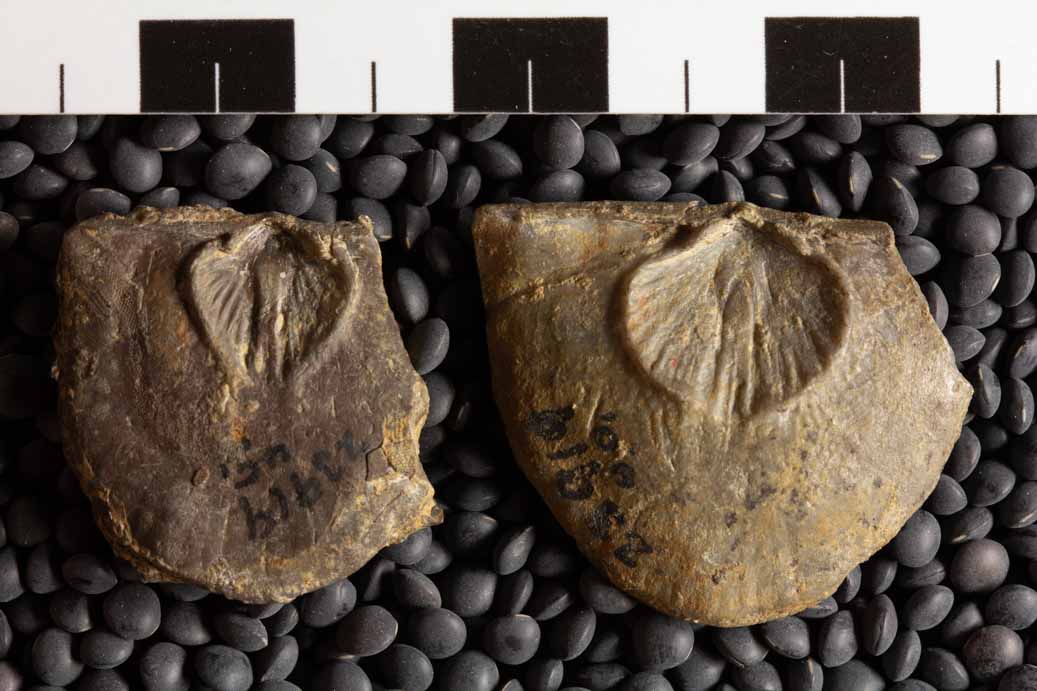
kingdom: Animalia
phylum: Brachiopoda
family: Strophomenidae
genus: Strophomena
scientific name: Strophomena
